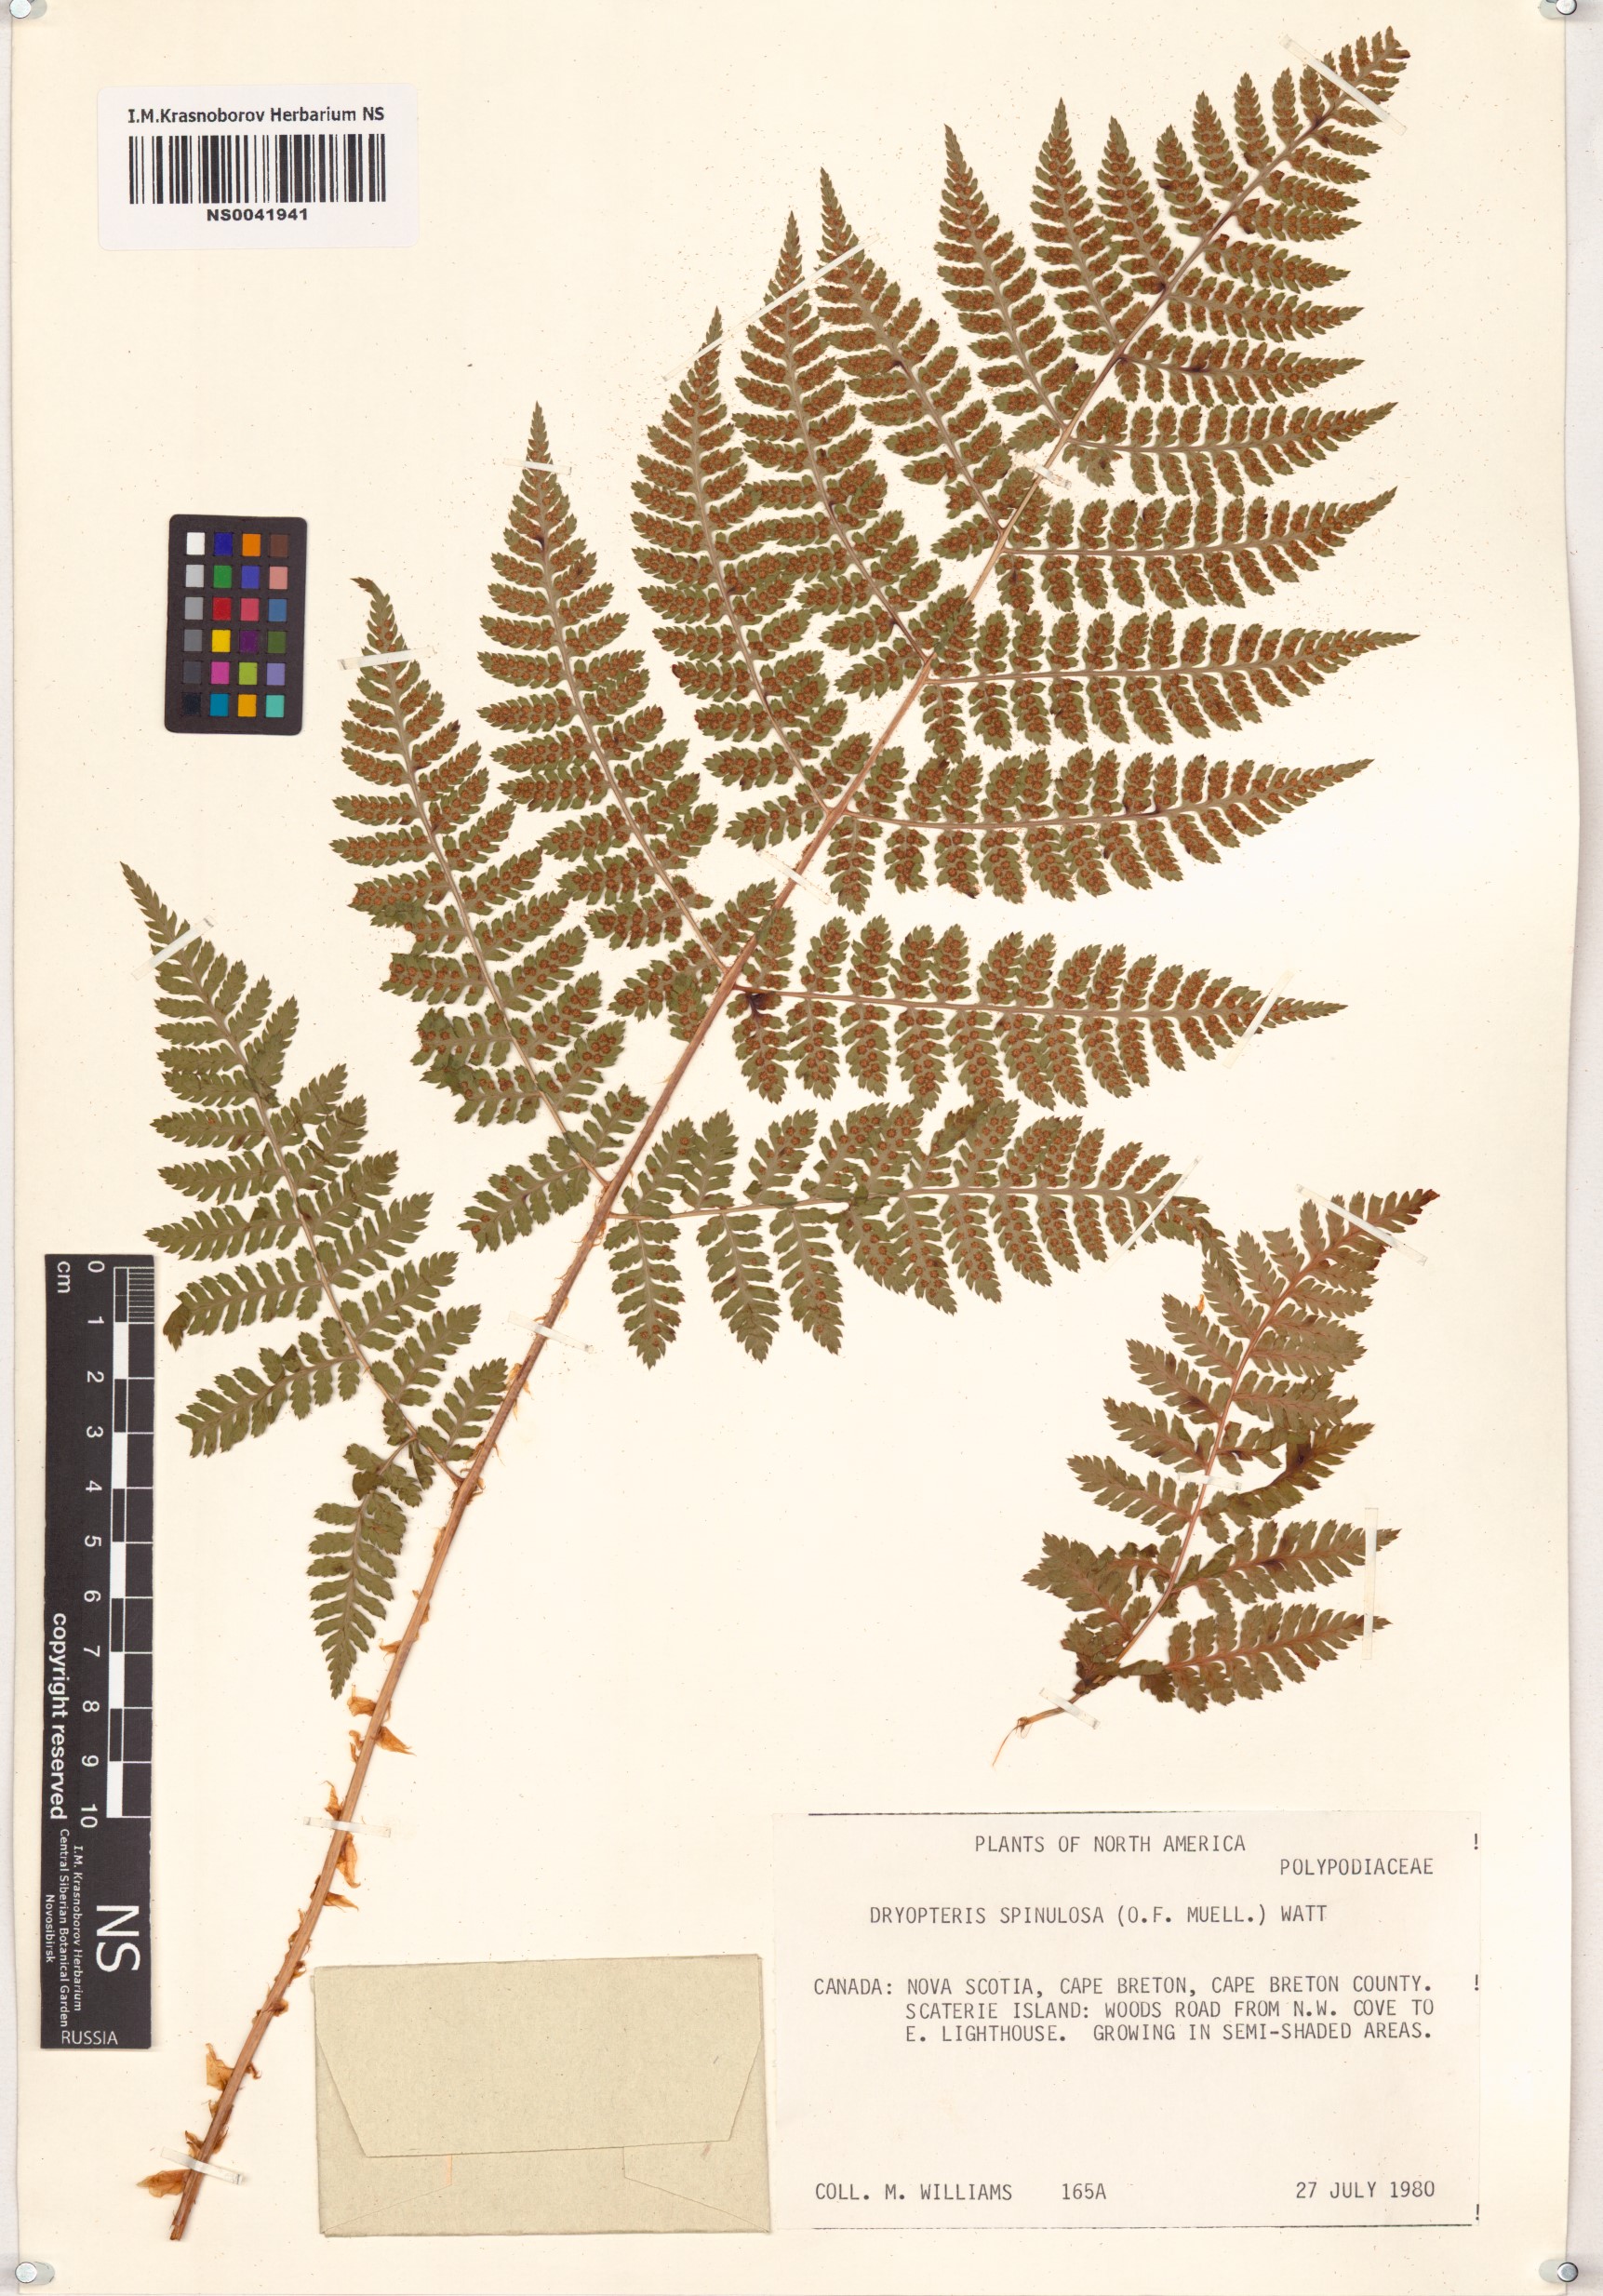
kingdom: Plantae
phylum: Tracheophyta
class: Polypodiopsida
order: Polypodiales
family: Dryopteridaceae
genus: Dryopteris
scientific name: Dryopteris carthusiana
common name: Narrow buckler-fern
